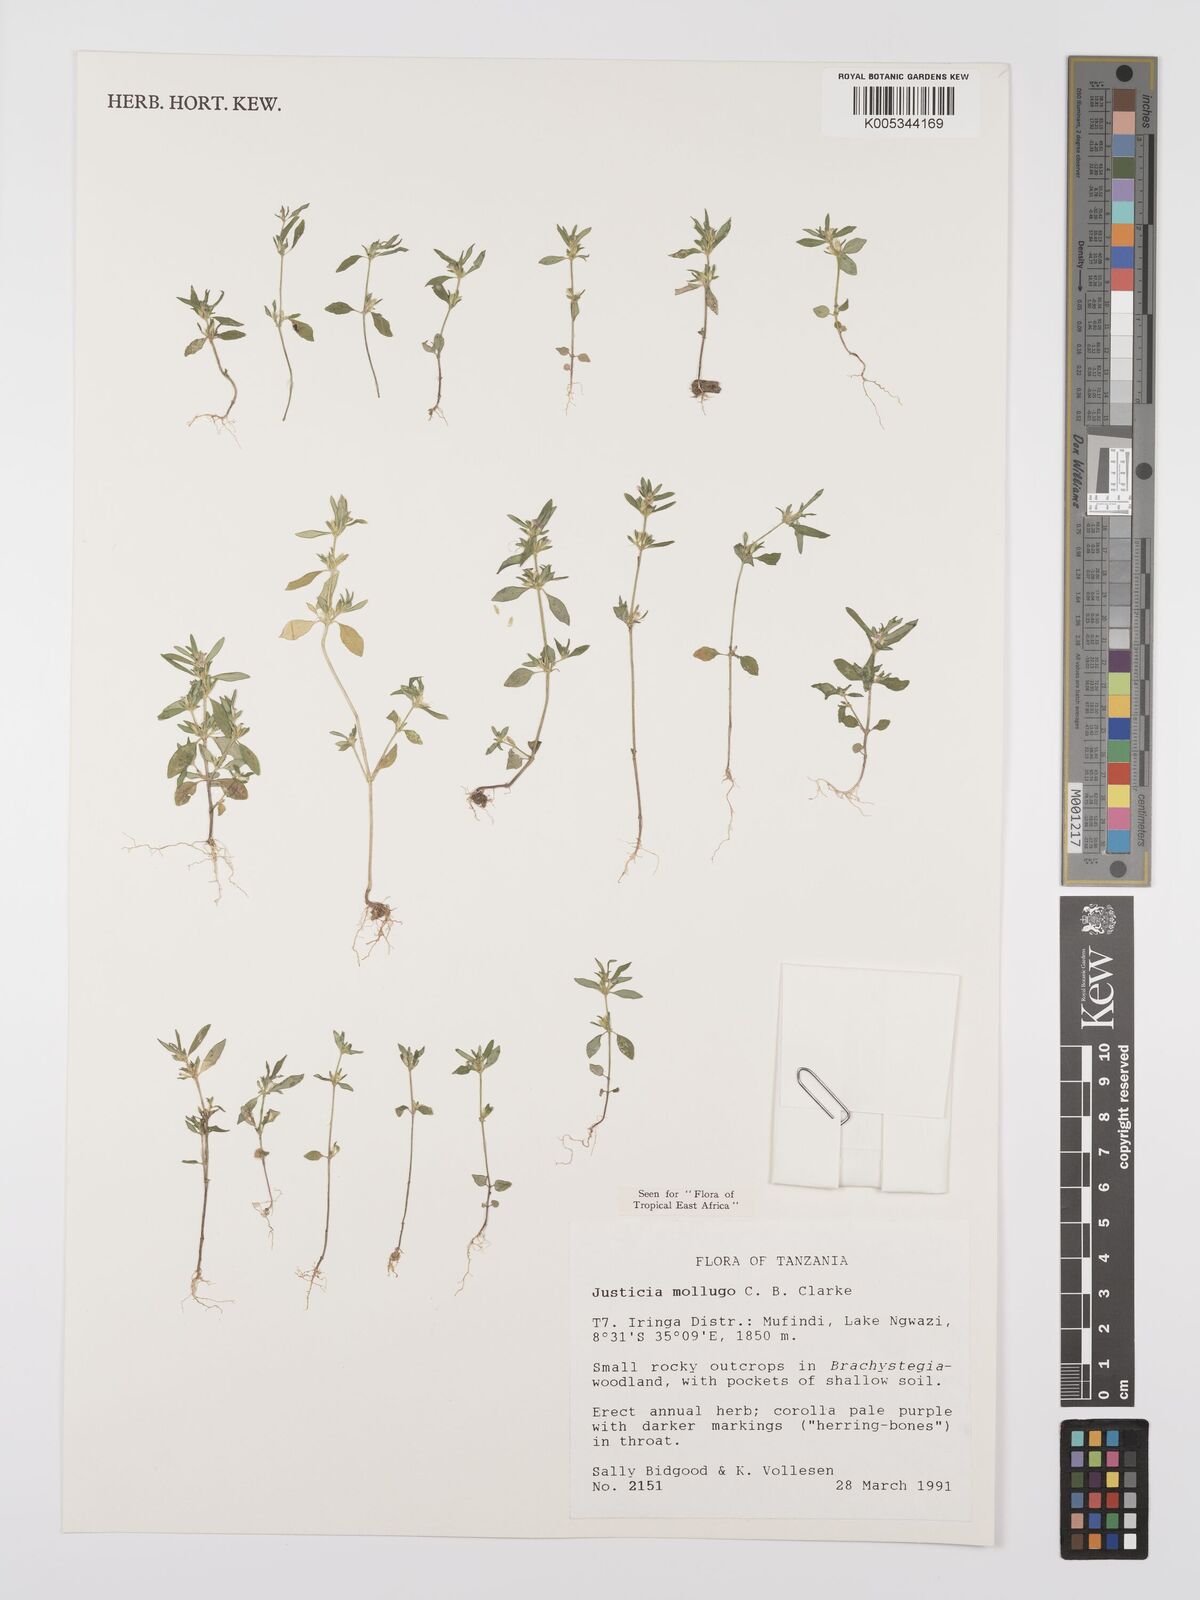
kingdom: Plantae
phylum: Tracheophyta
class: Magnoliopsida
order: Lamiales
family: Acanthaceae
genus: Justicia
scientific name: Justicia mollugo
